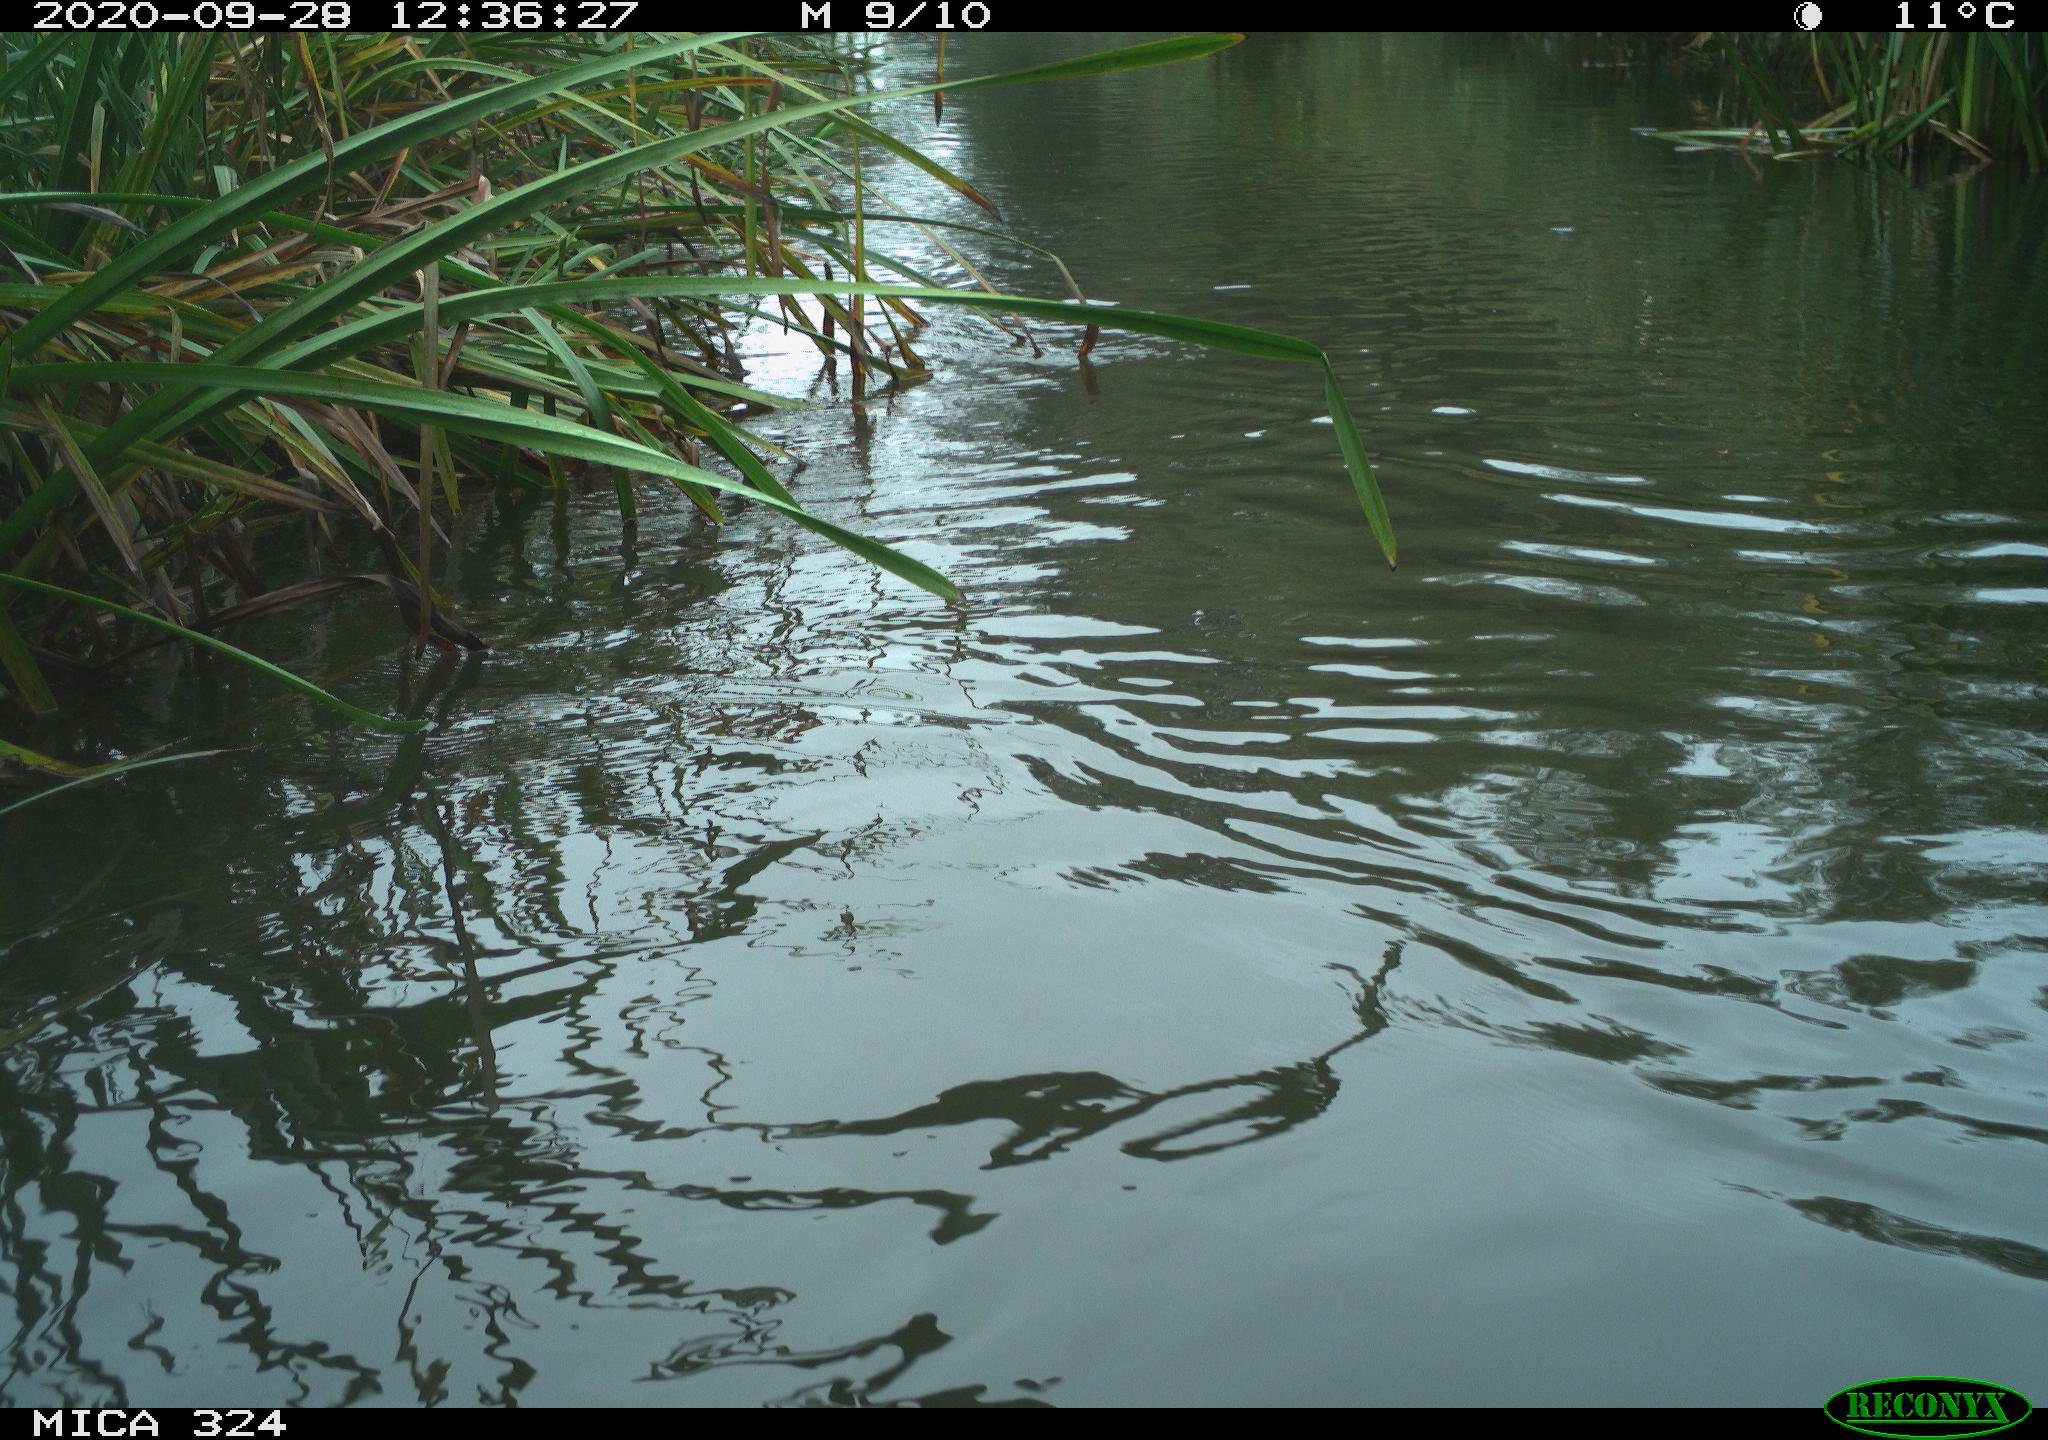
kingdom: Animalia
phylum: Chordata
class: Aves
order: Gruiformes
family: Rallidae
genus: Fulica
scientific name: Fulica atra
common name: Eurasian coot
